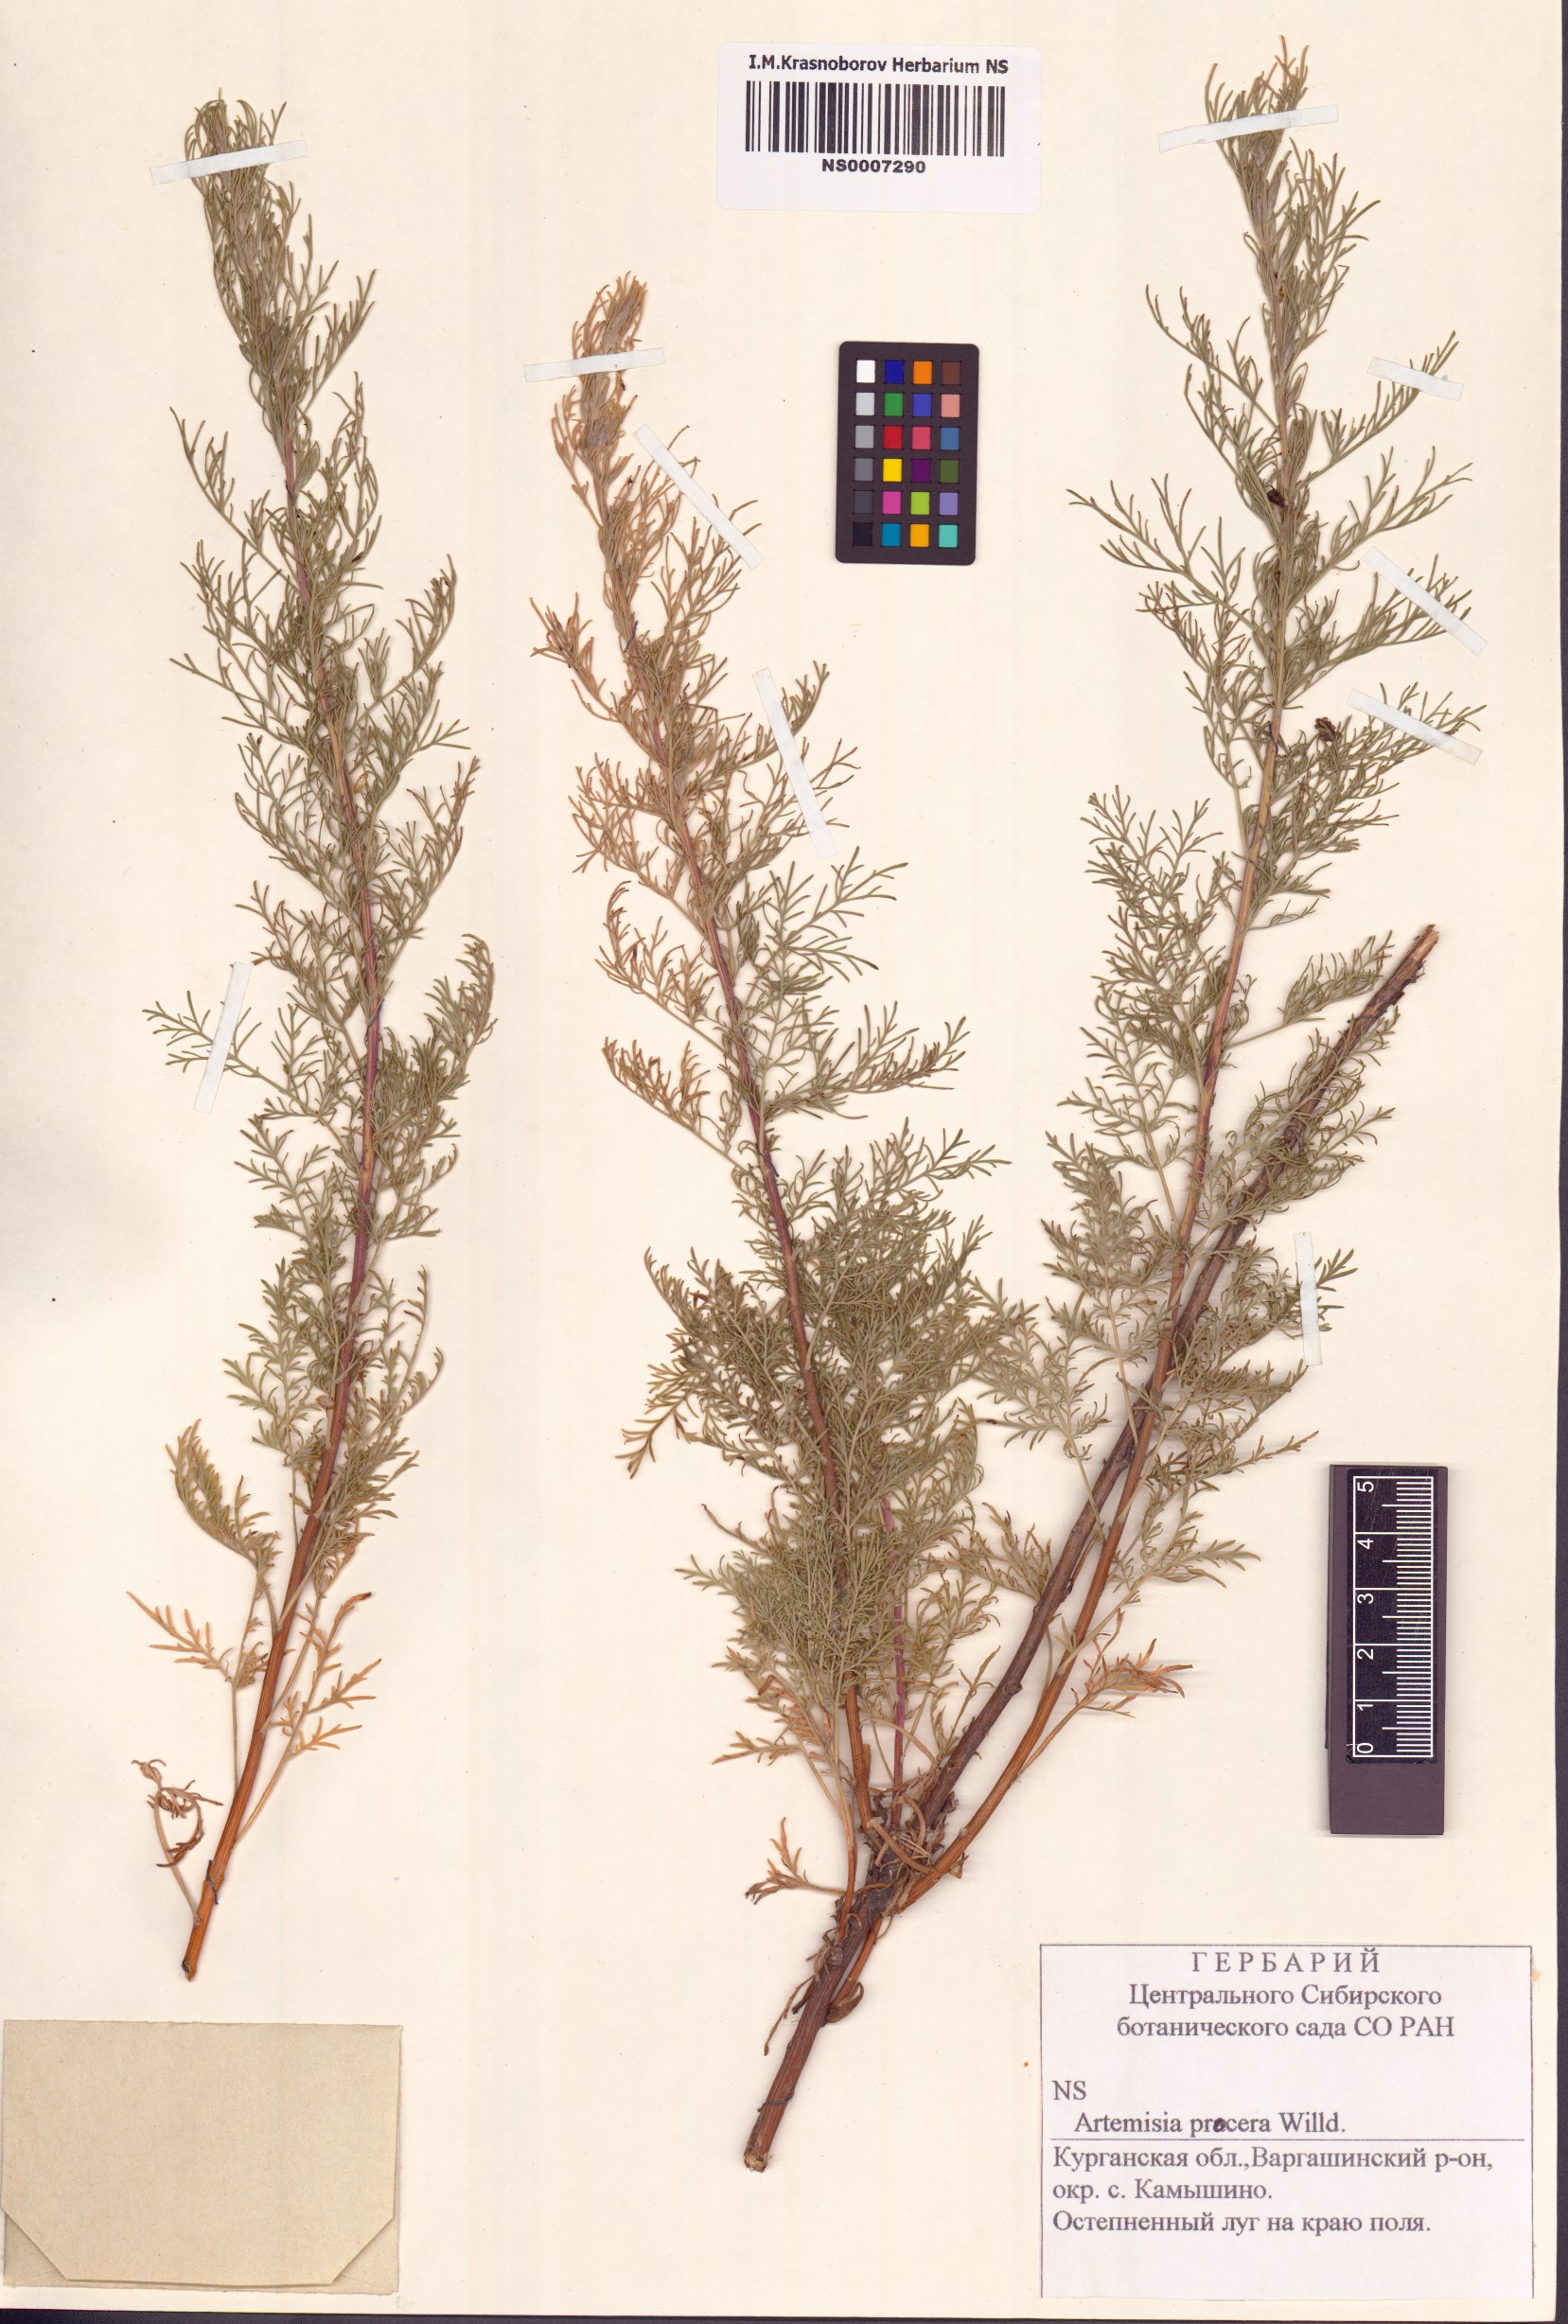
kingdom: Plantae
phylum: Tracheophyta
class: Magnoliopsida
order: Asterales
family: Asteraceae
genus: Artemisia
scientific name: Artemisia abrotanum
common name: Southernwood
